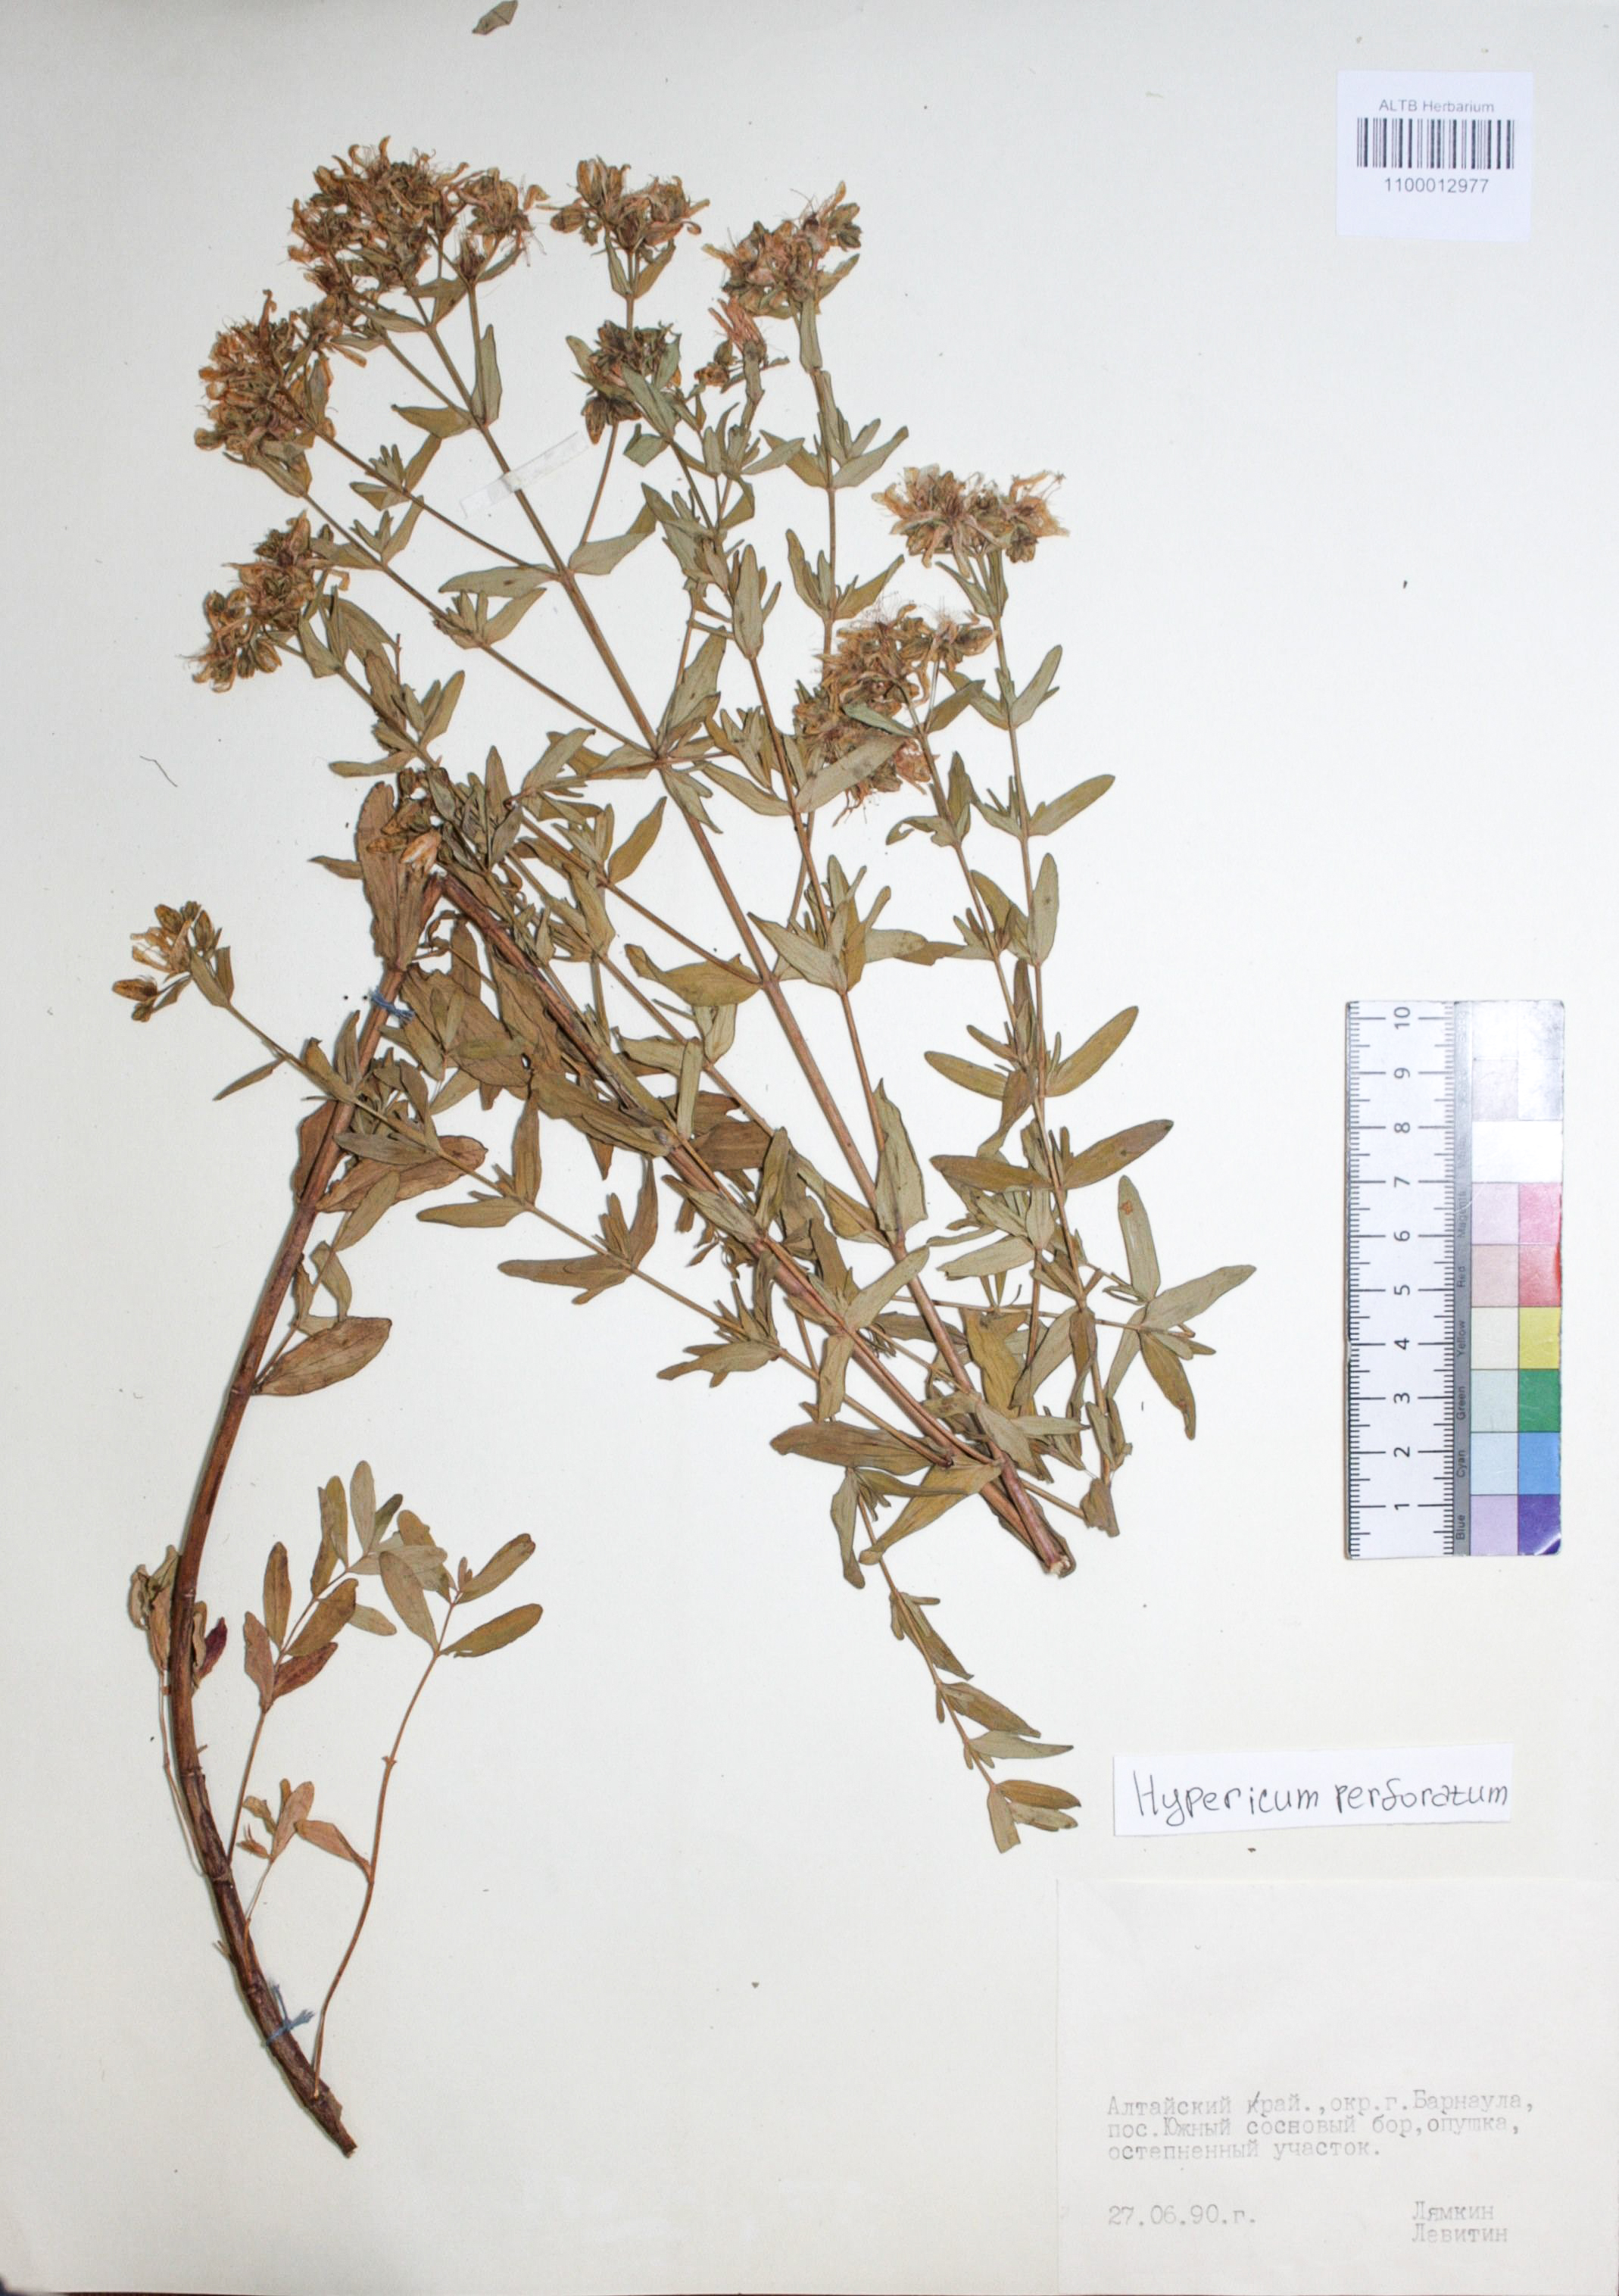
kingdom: Plantae
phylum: Tracheophyta
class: Magnoliopsida
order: Malpighiales
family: Hypericaceae
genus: Hypericum
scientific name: Hypericum perforatum
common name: Common st. johnswort
